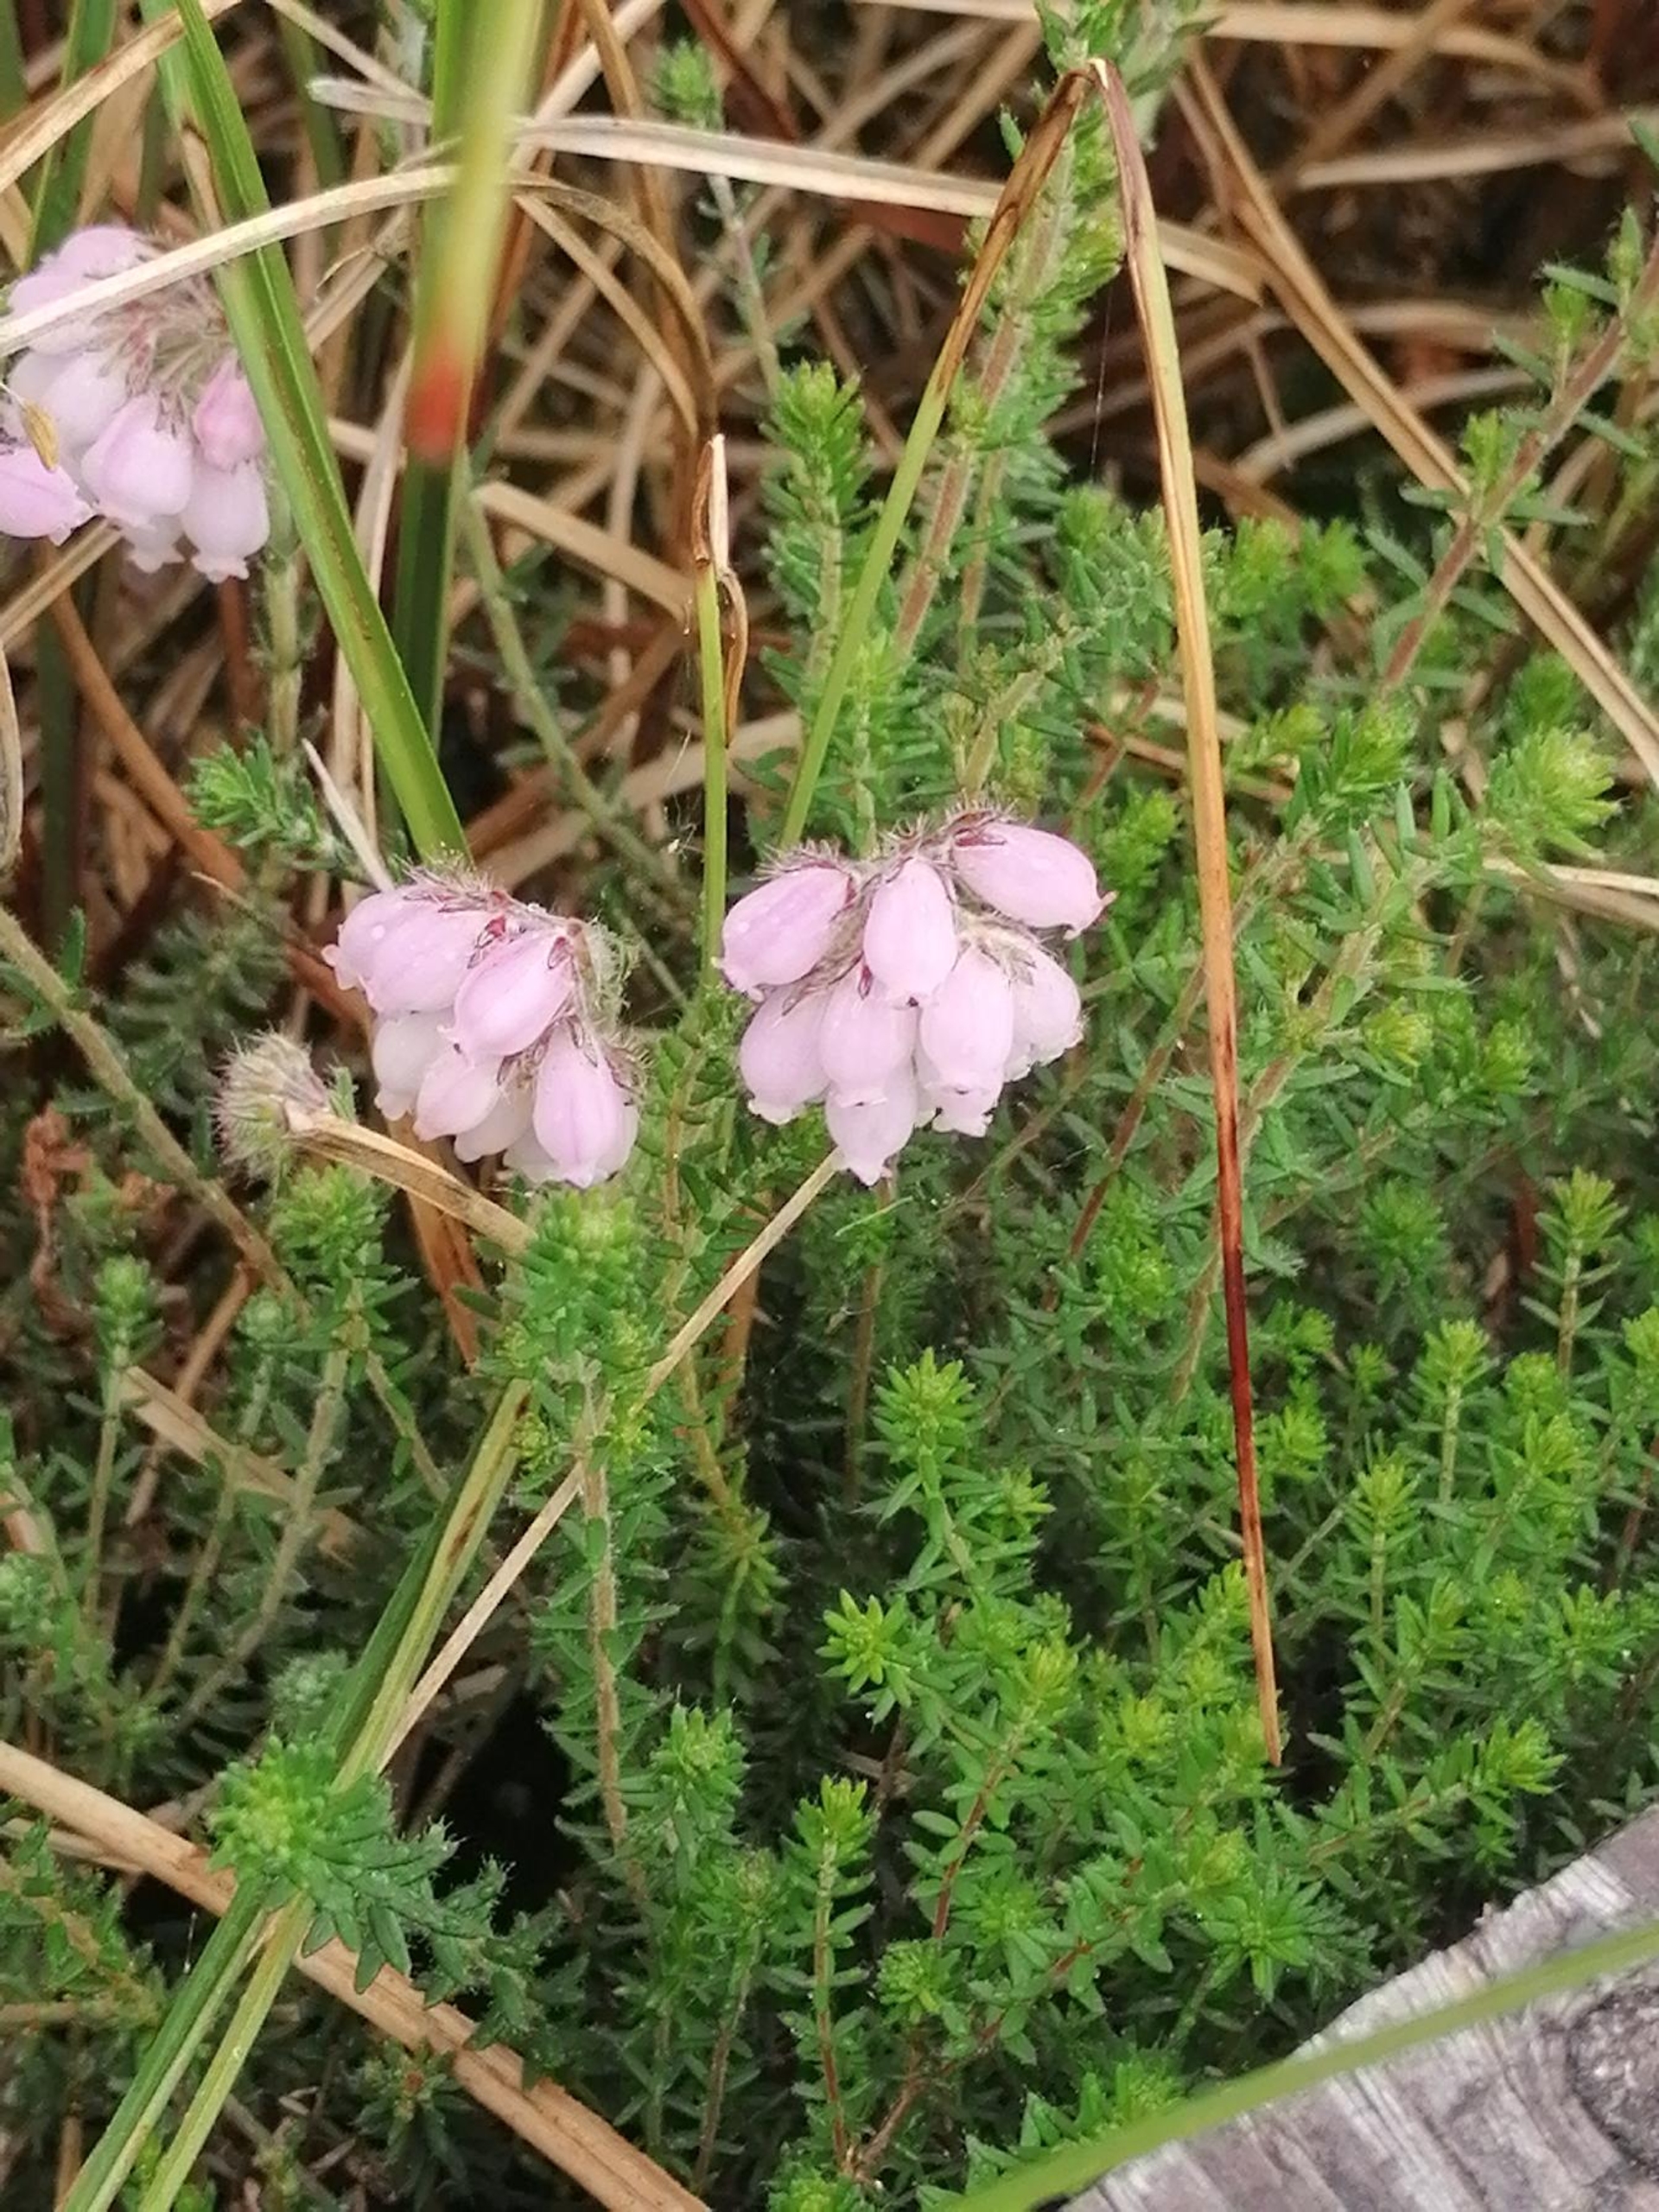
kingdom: Plantae
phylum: Tracheophyta
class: Magnoliopsida
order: Ericales
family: Ericaceae
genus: Erica
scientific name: Erica tetralix
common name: Klokkelyng
